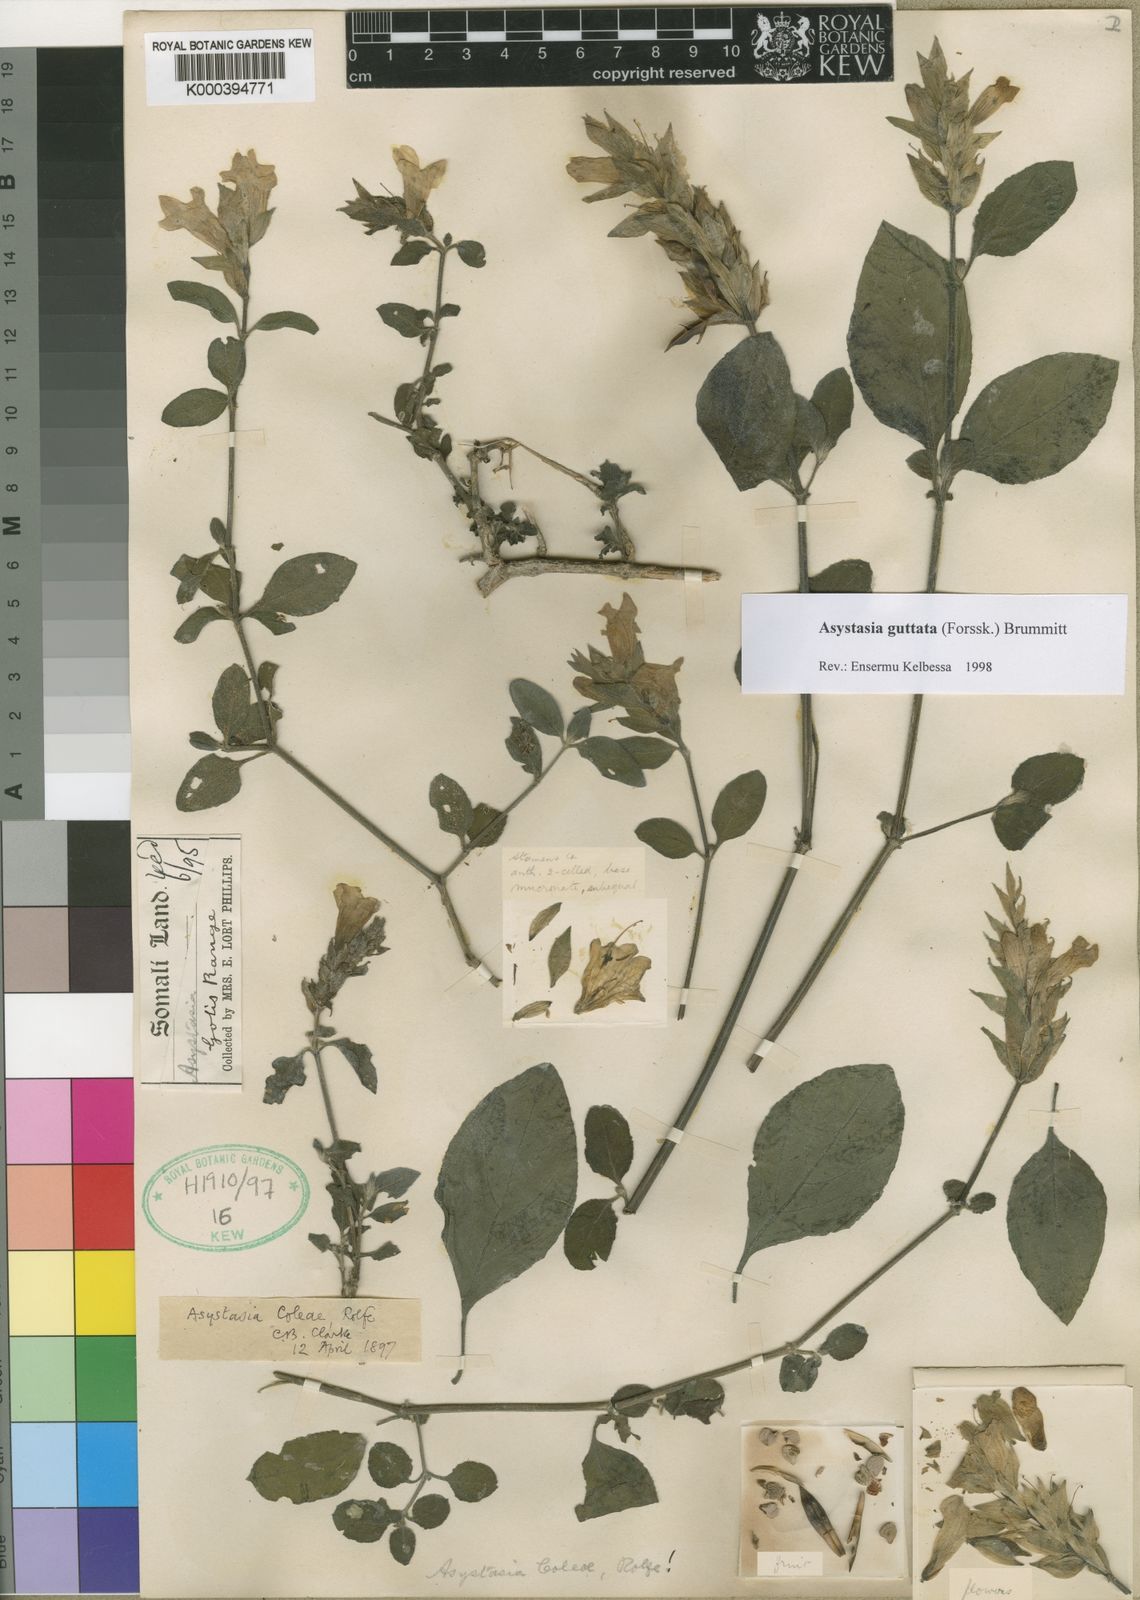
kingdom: Plantae
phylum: Tracheophyta
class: Magnoliopsida
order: Lamiales
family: Acanthaceae
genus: Asystasia
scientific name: Asystasia guttata
